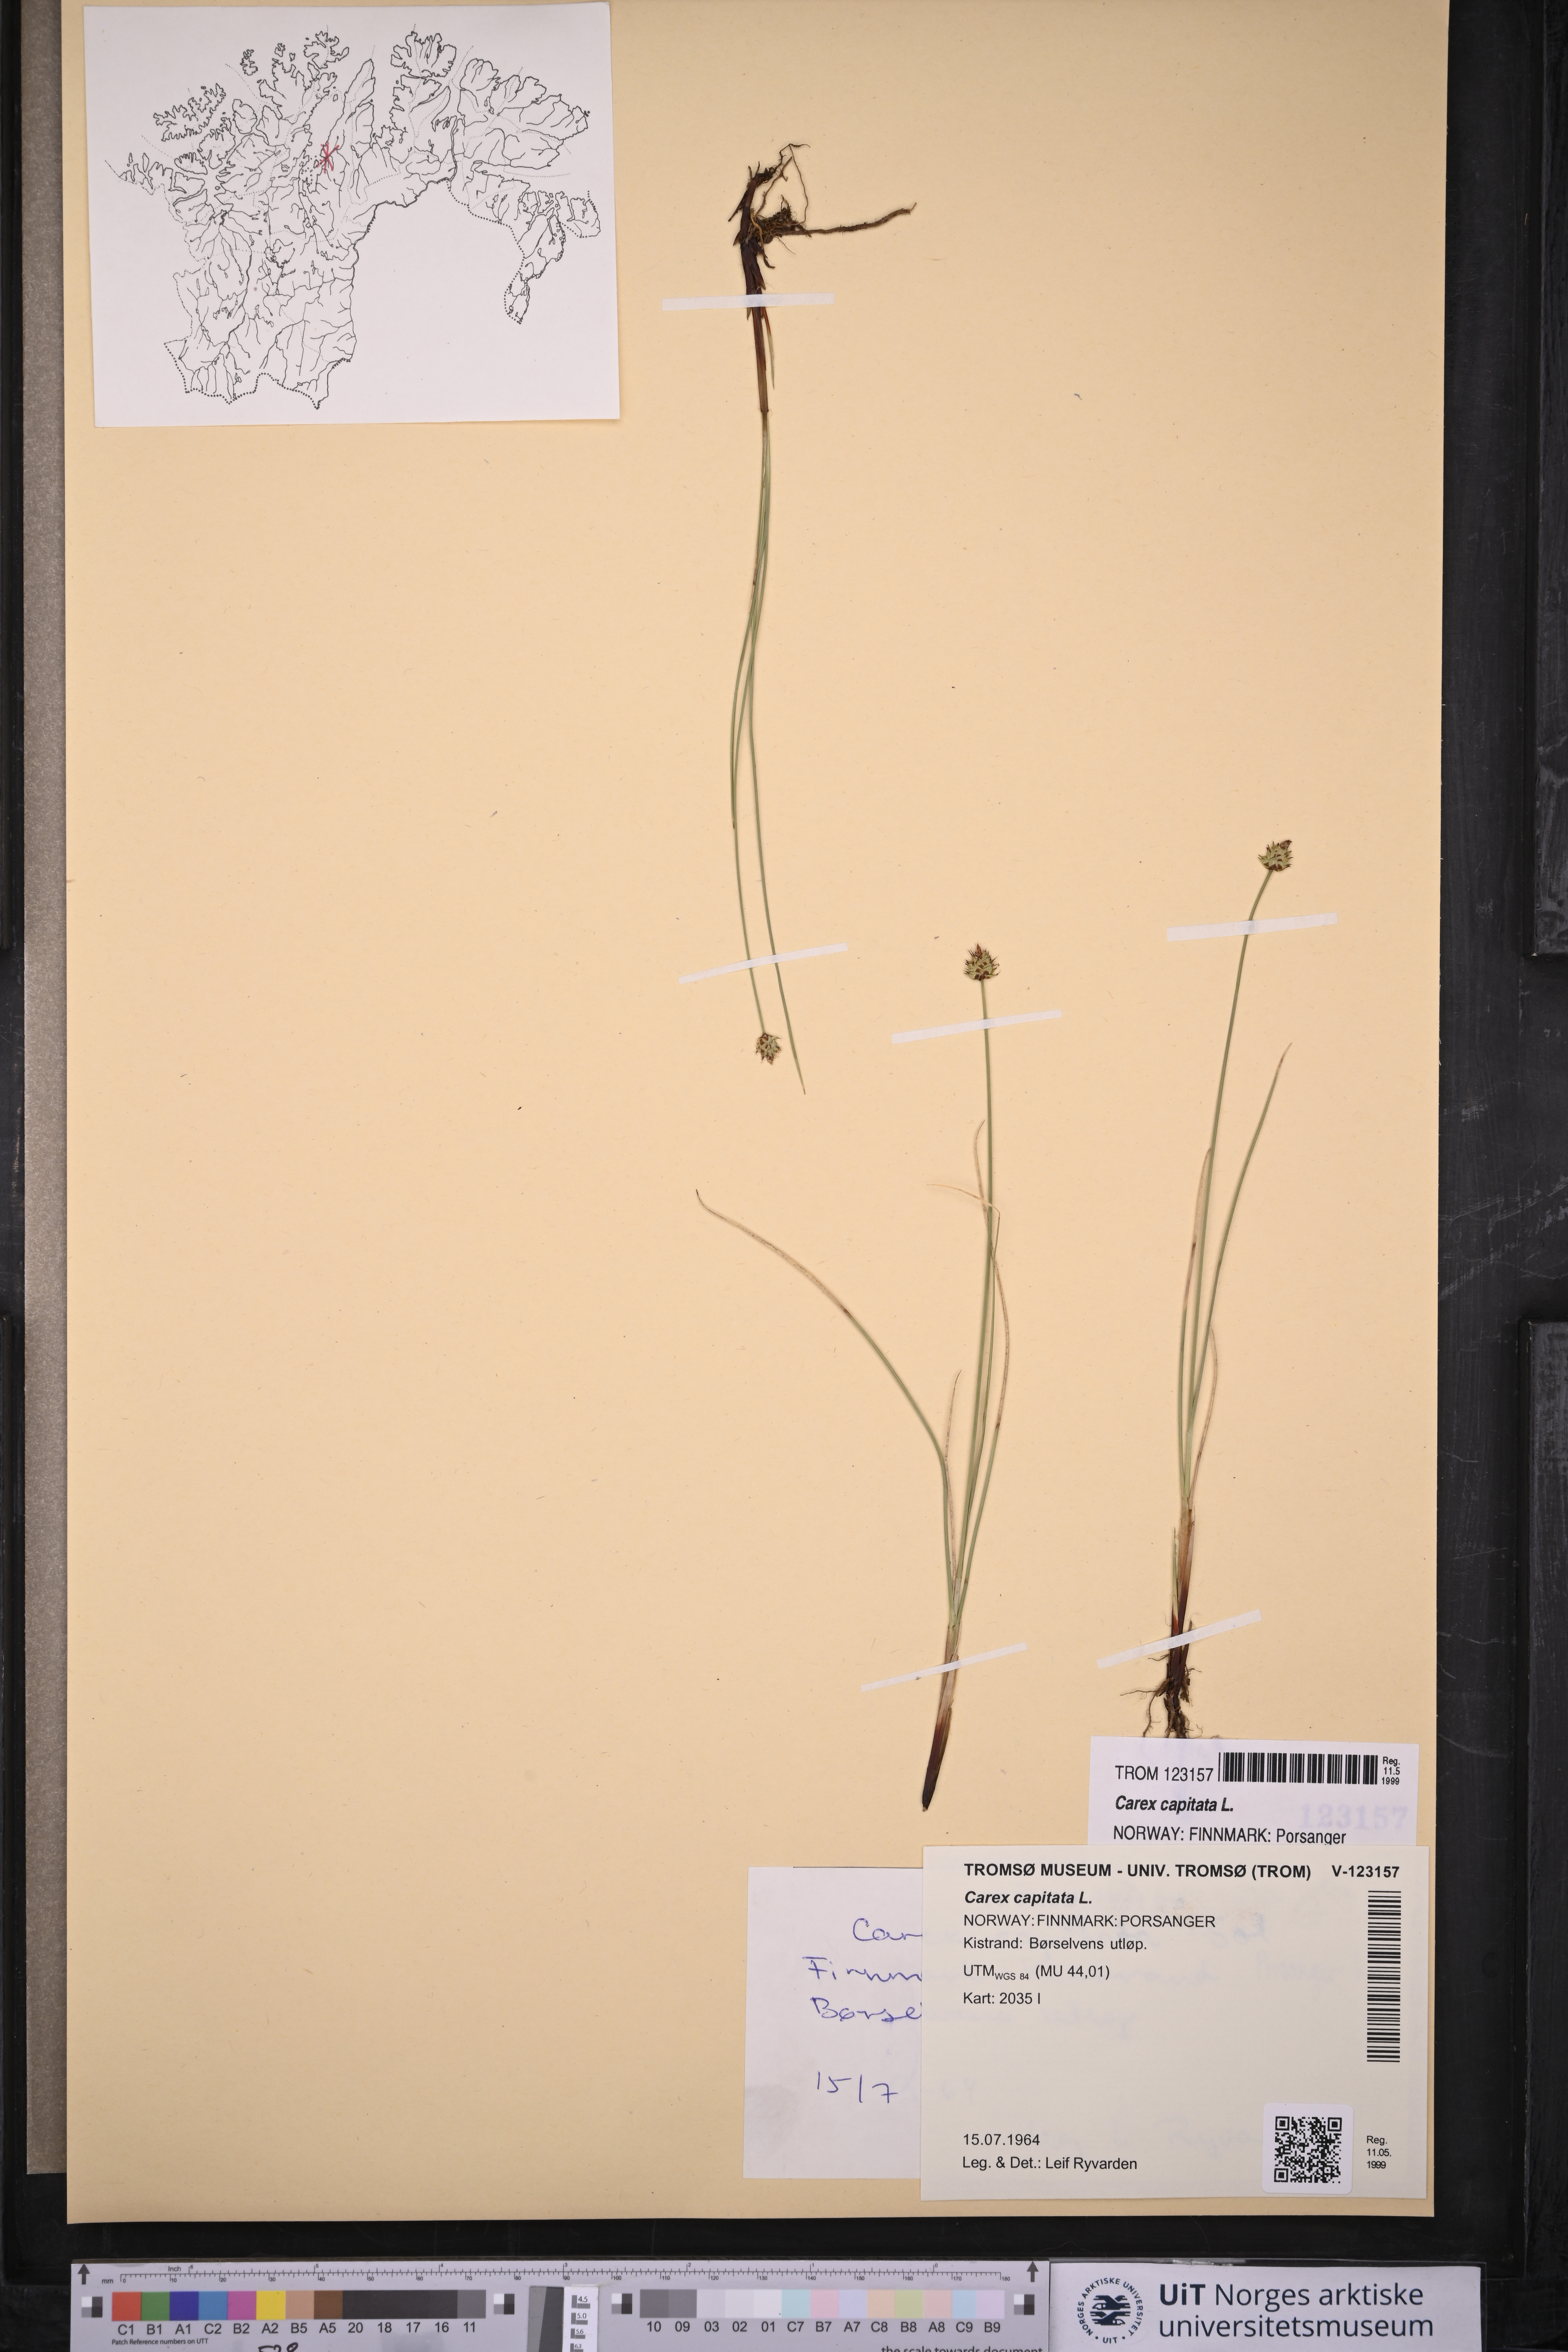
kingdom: Plantae
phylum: Tracheophyta
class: Liliopsida
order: Poales
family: Cyperaceae
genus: Carex
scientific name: Carex capitata
